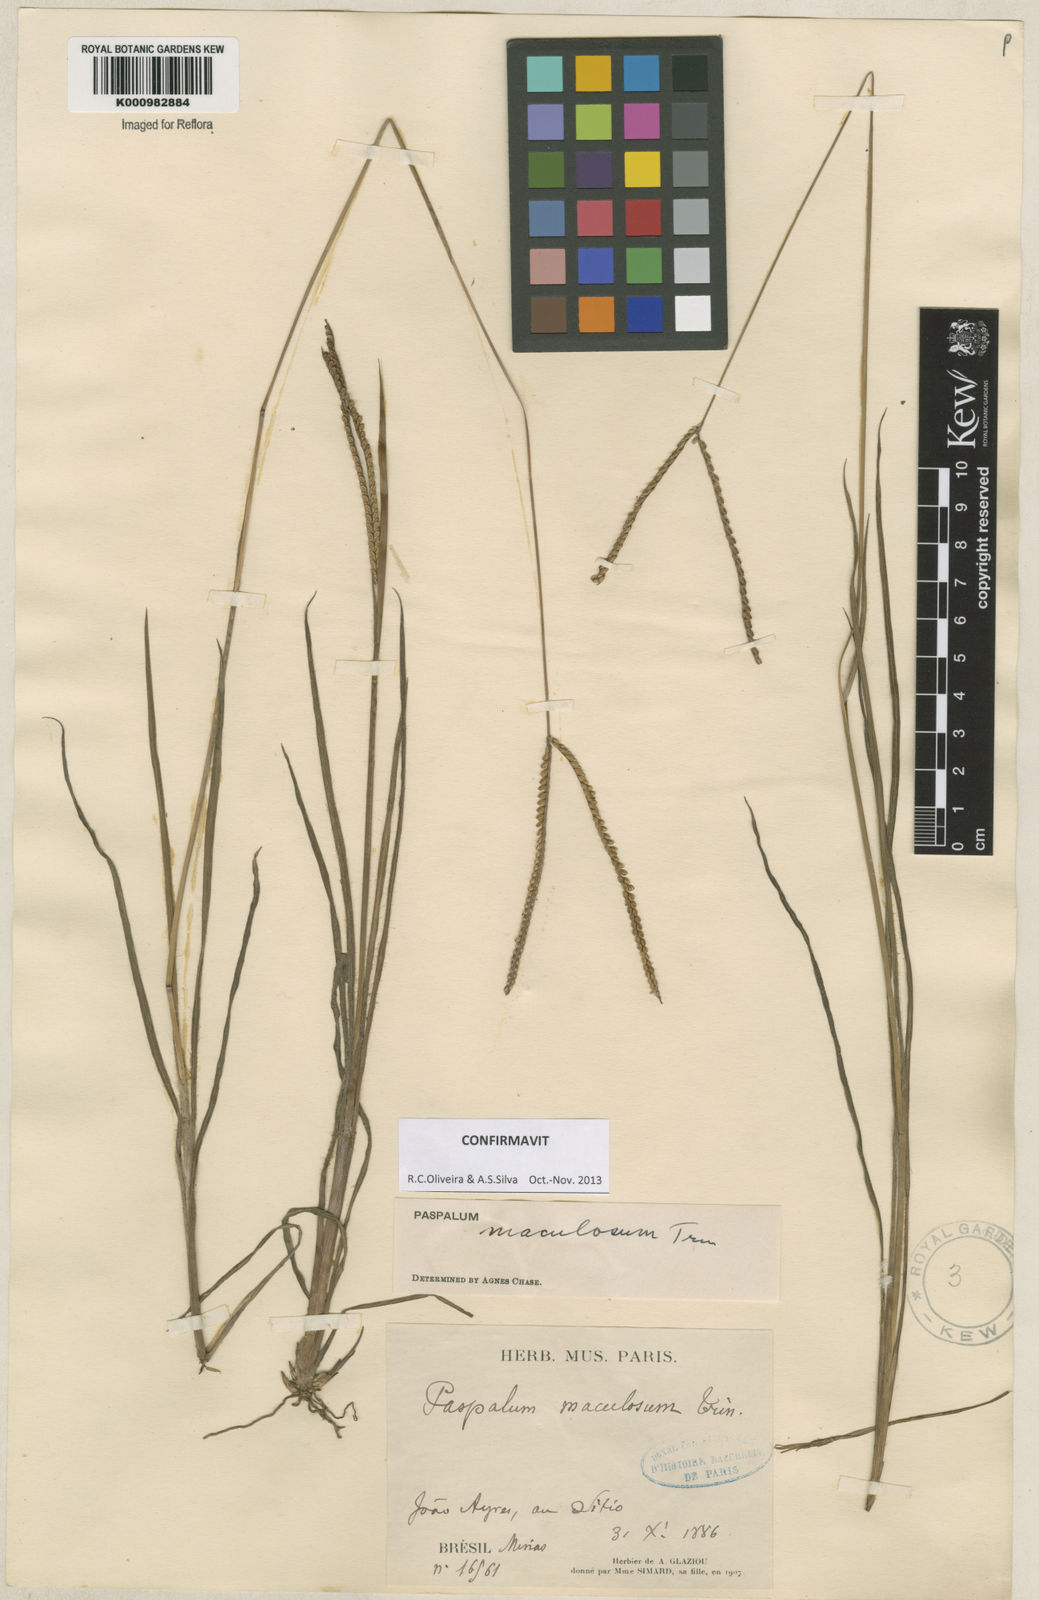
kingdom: Plantae
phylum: Tracheophyta
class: Liliopsida
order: Poales
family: Poaceae
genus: Paspalum
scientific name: Paspalum maculosum
